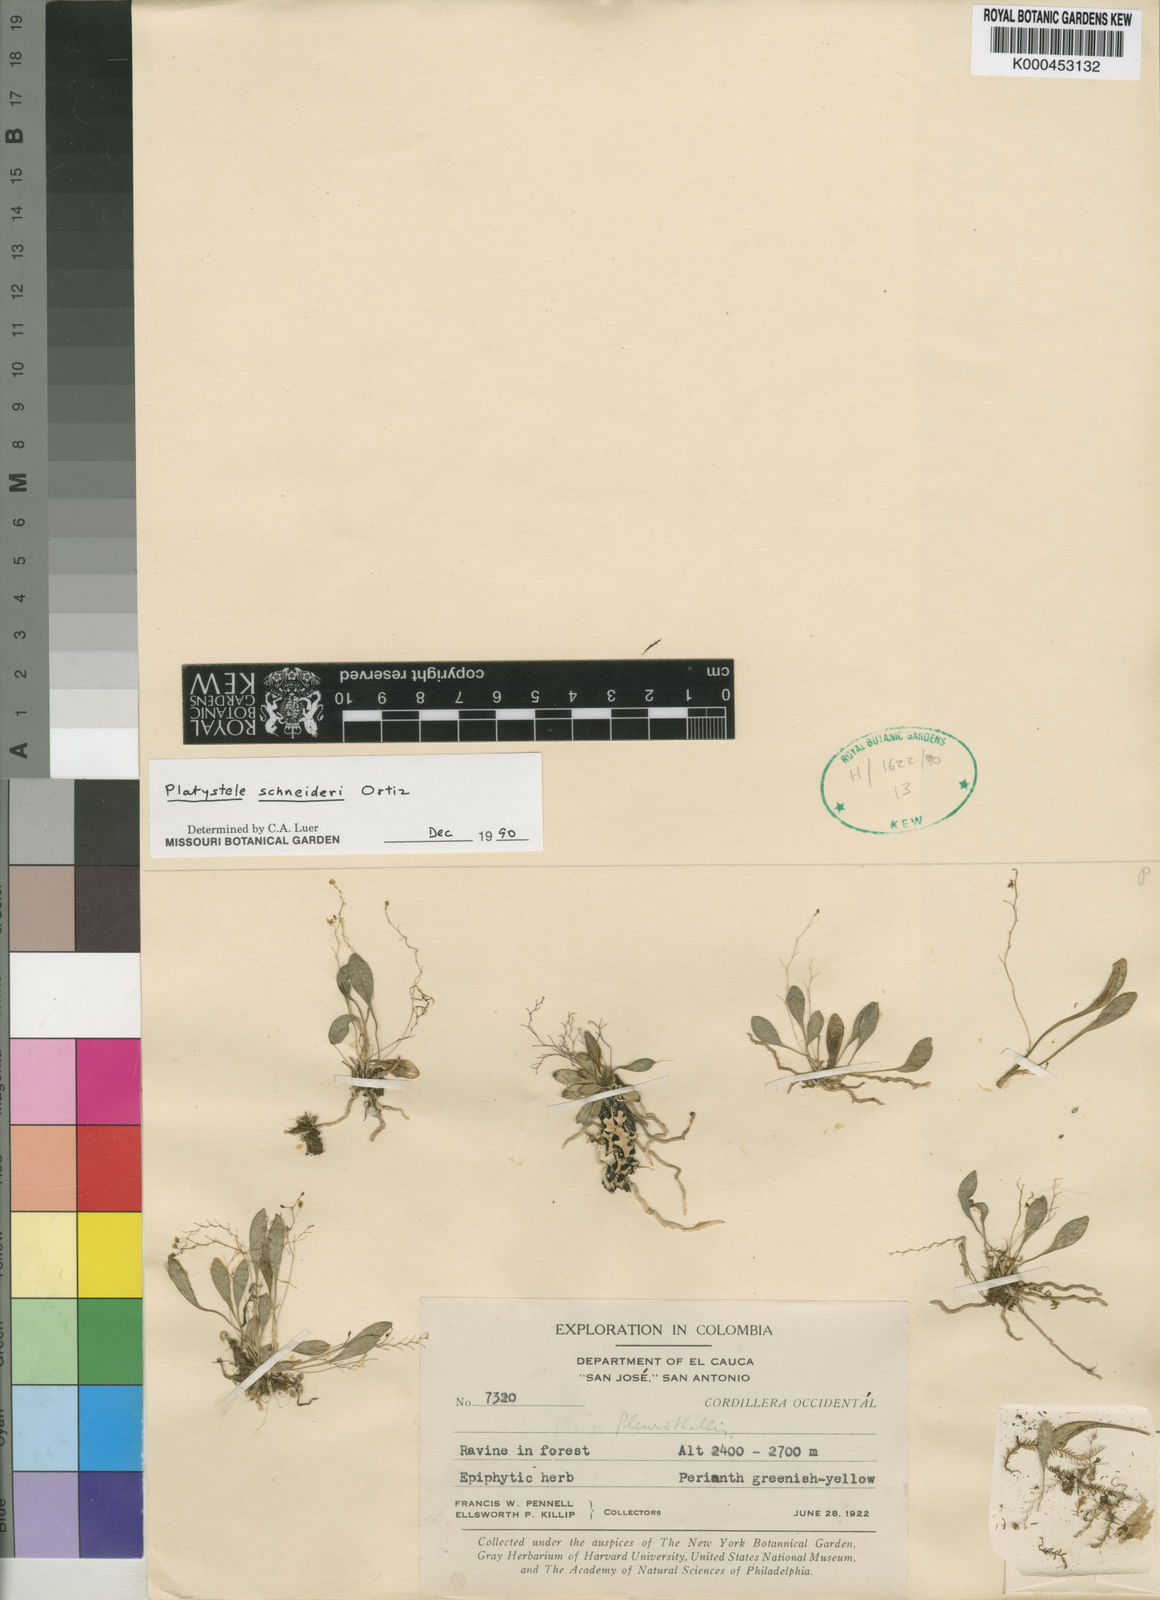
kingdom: Plantae
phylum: Tracheophyta
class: Liliopsida
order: Asparagales
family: Orchidaceae
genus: Platystele
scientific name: Platystele
